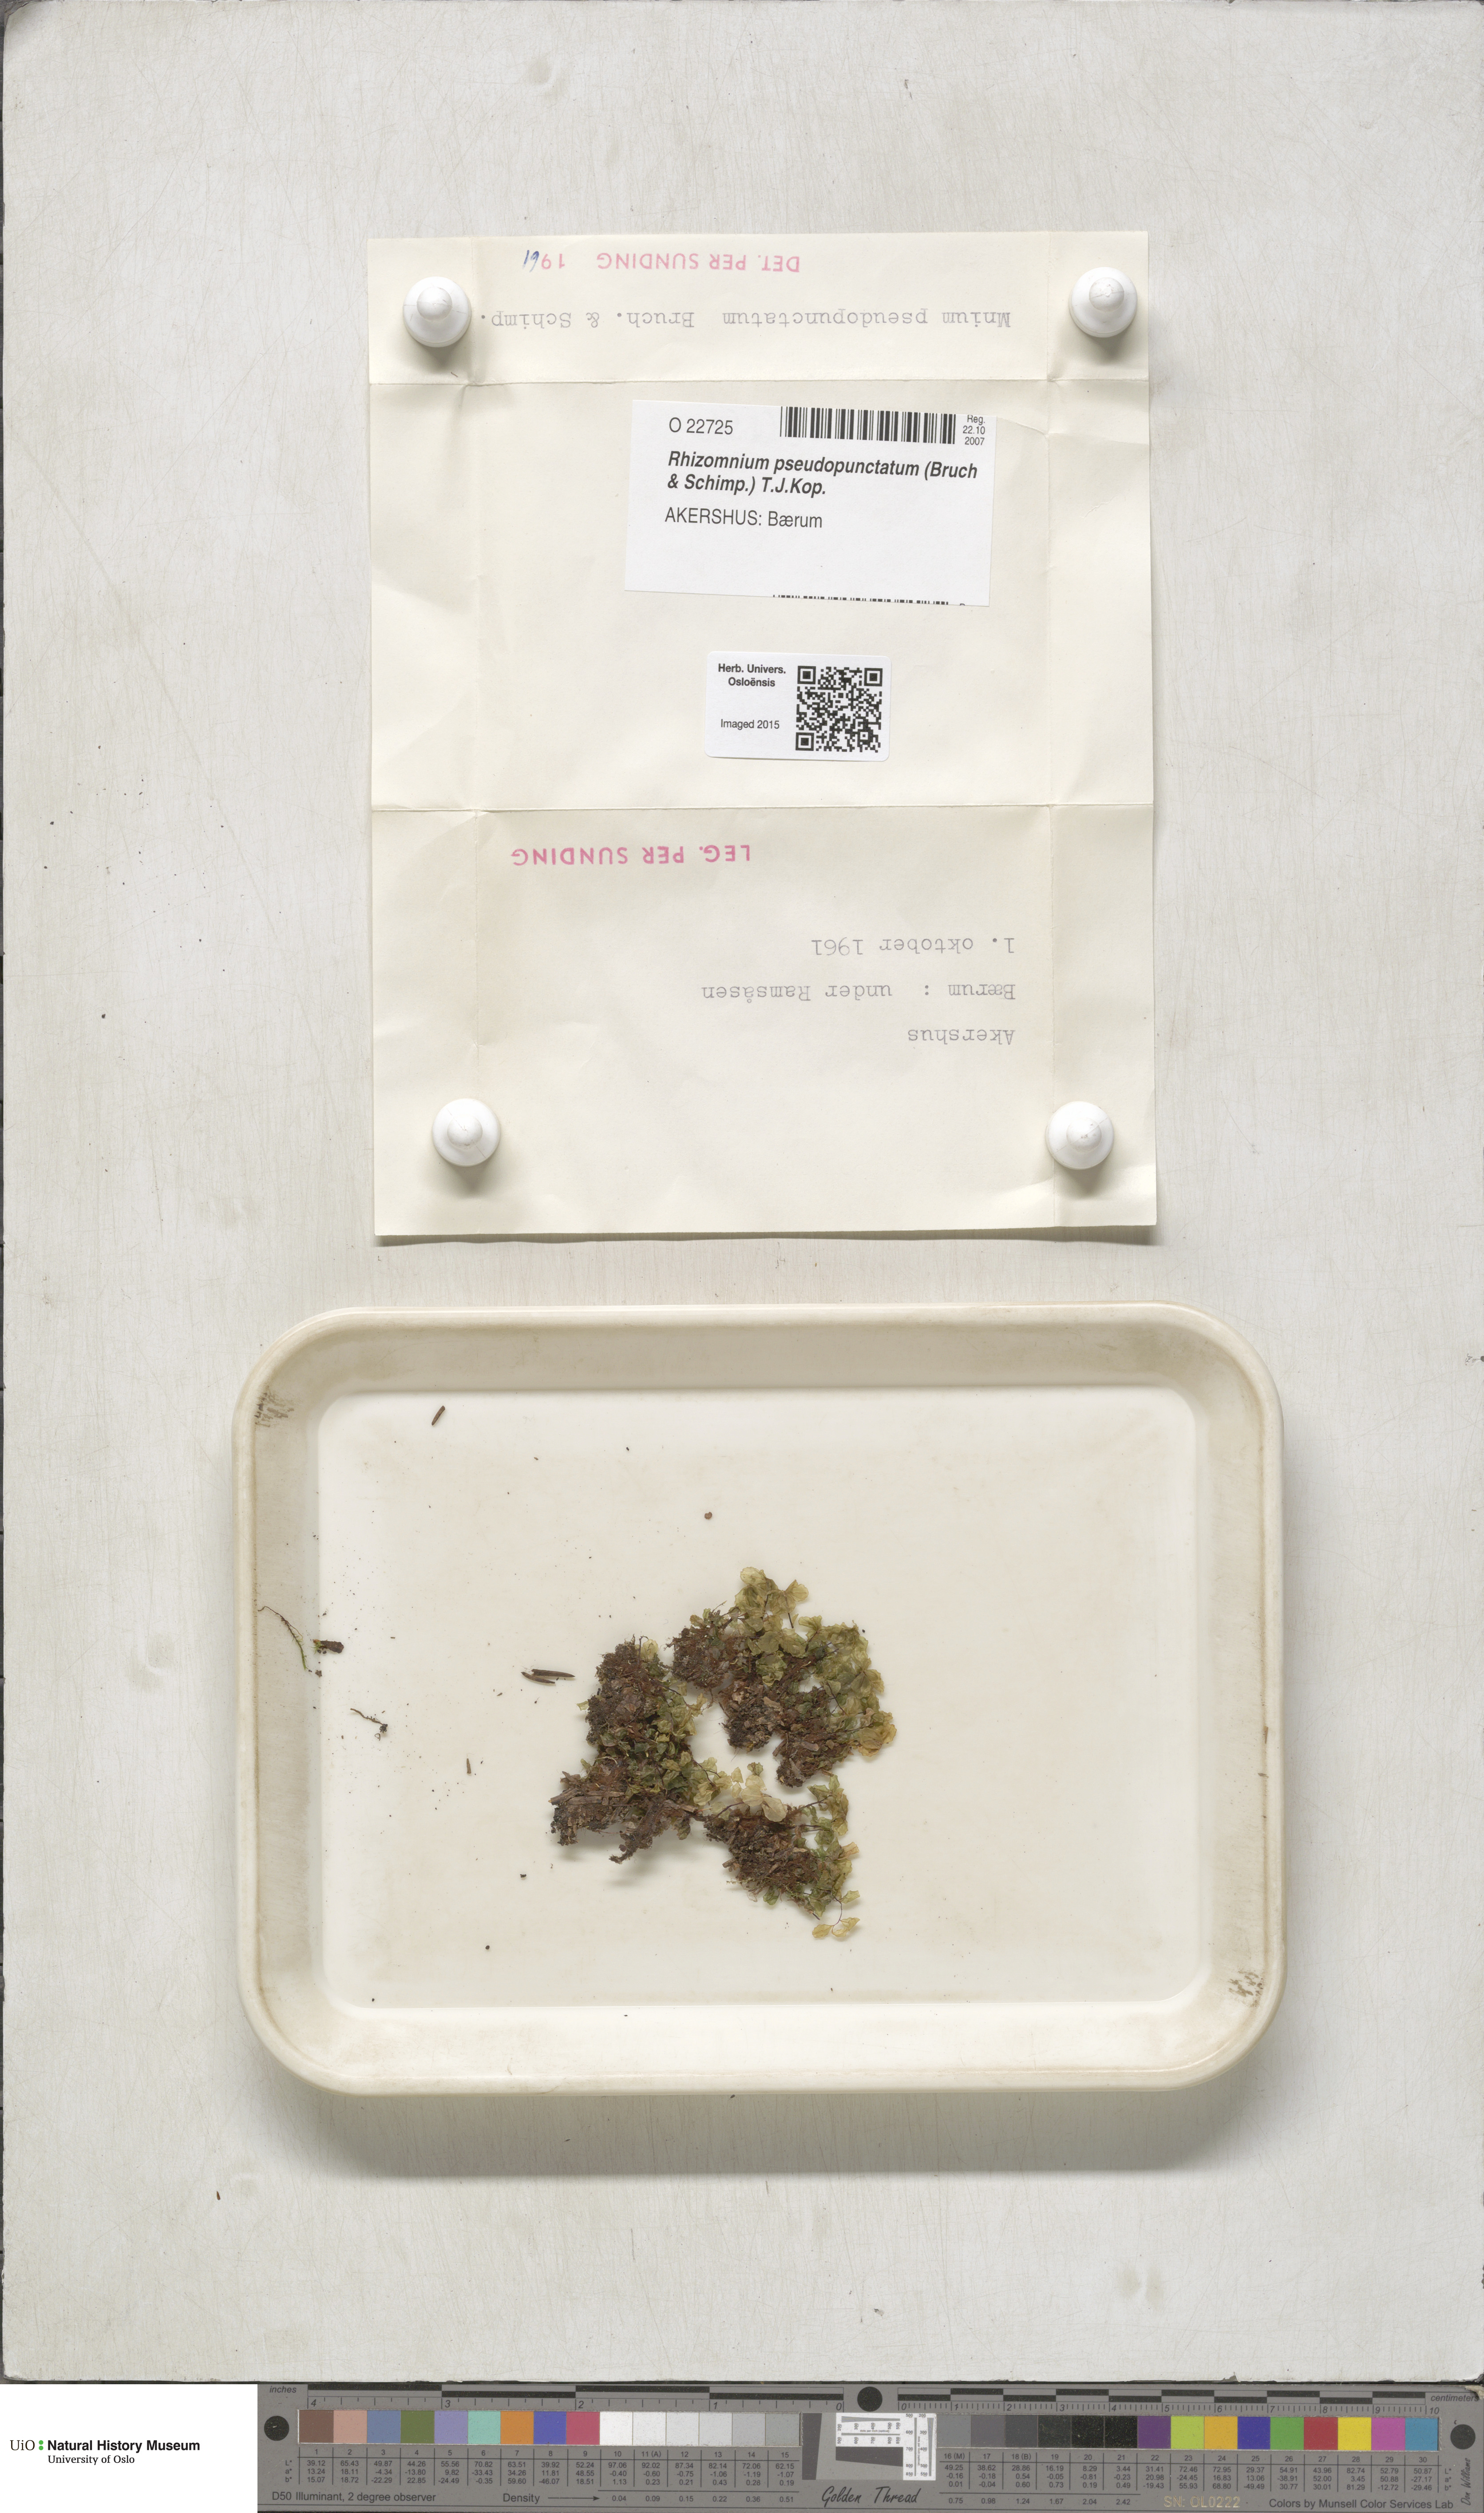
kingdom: Plantae
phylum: Bryophyta
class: Bryopsida
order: Bryales
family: Mniaceae
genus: Rhizomnium
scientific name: Rhizomnium pseudopunctatum
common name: Felted leafy moss
